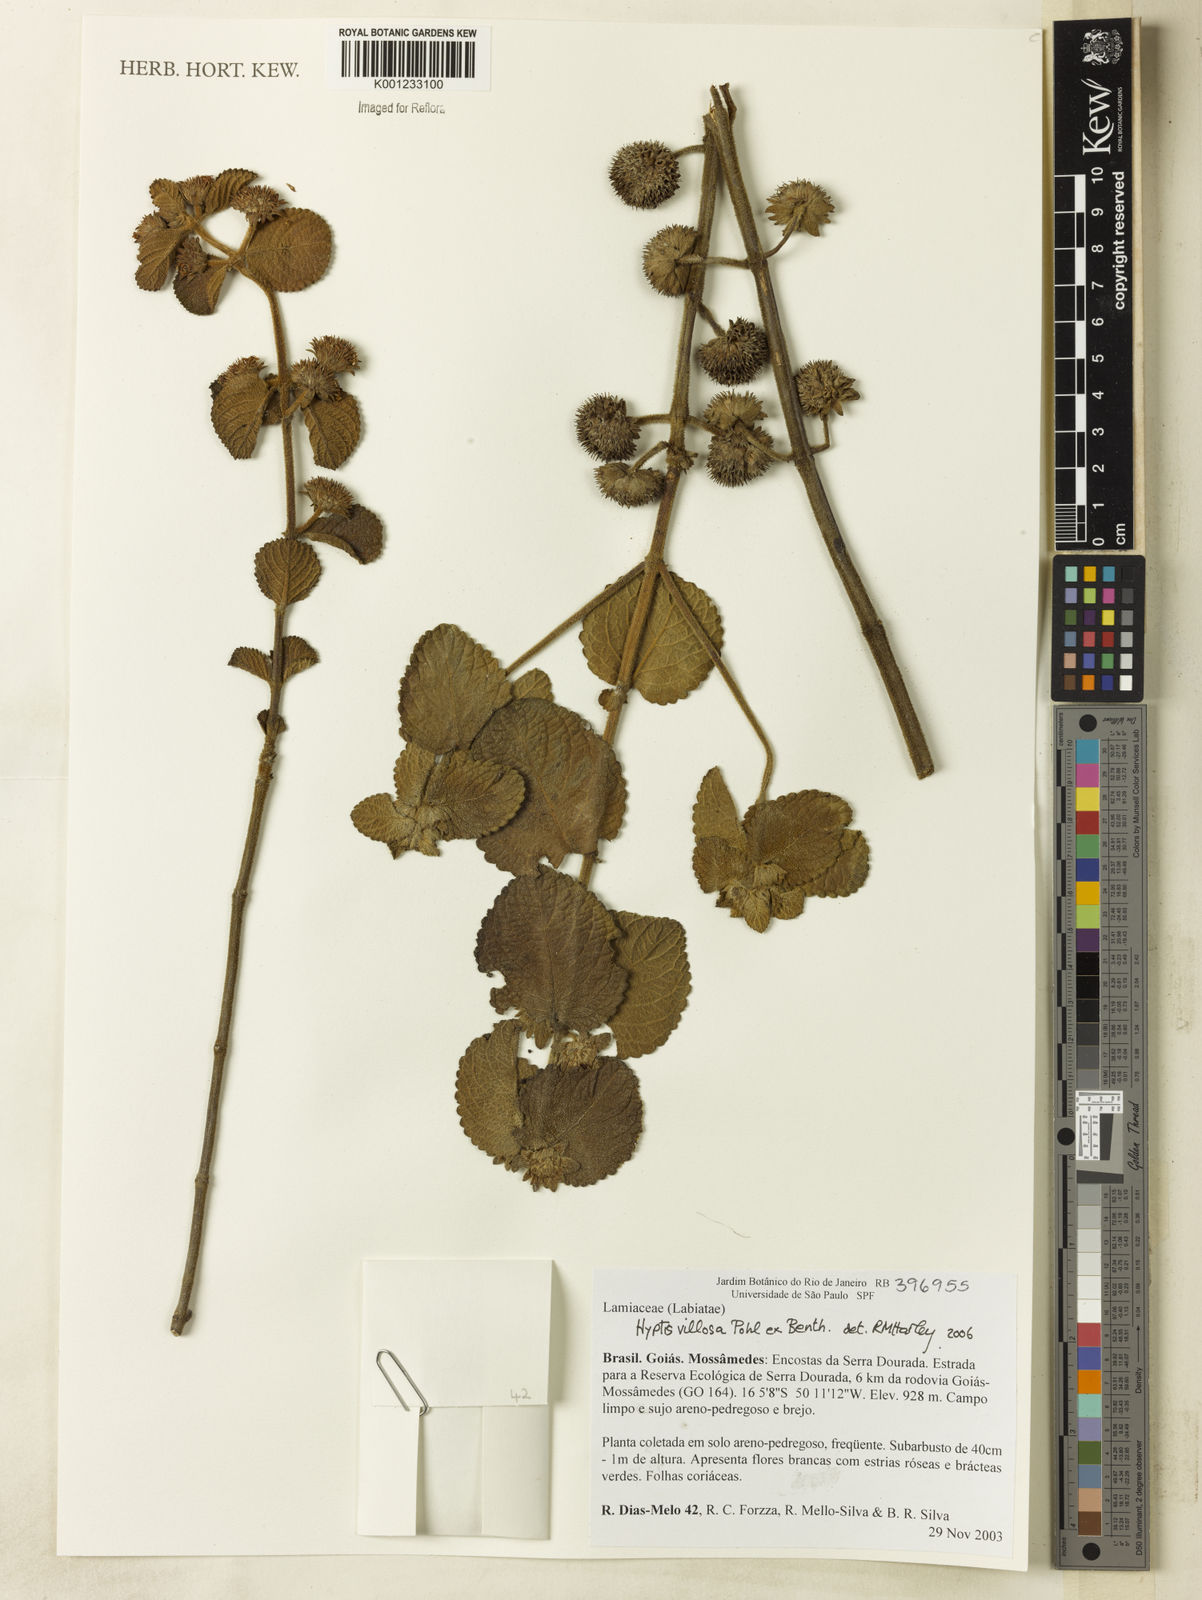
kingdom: Plantae
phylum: Tracheophyta
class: Magnoliopsida
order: Lamiales
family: Lamiaceae
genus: Hyptis
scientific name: Hyptis villosa
